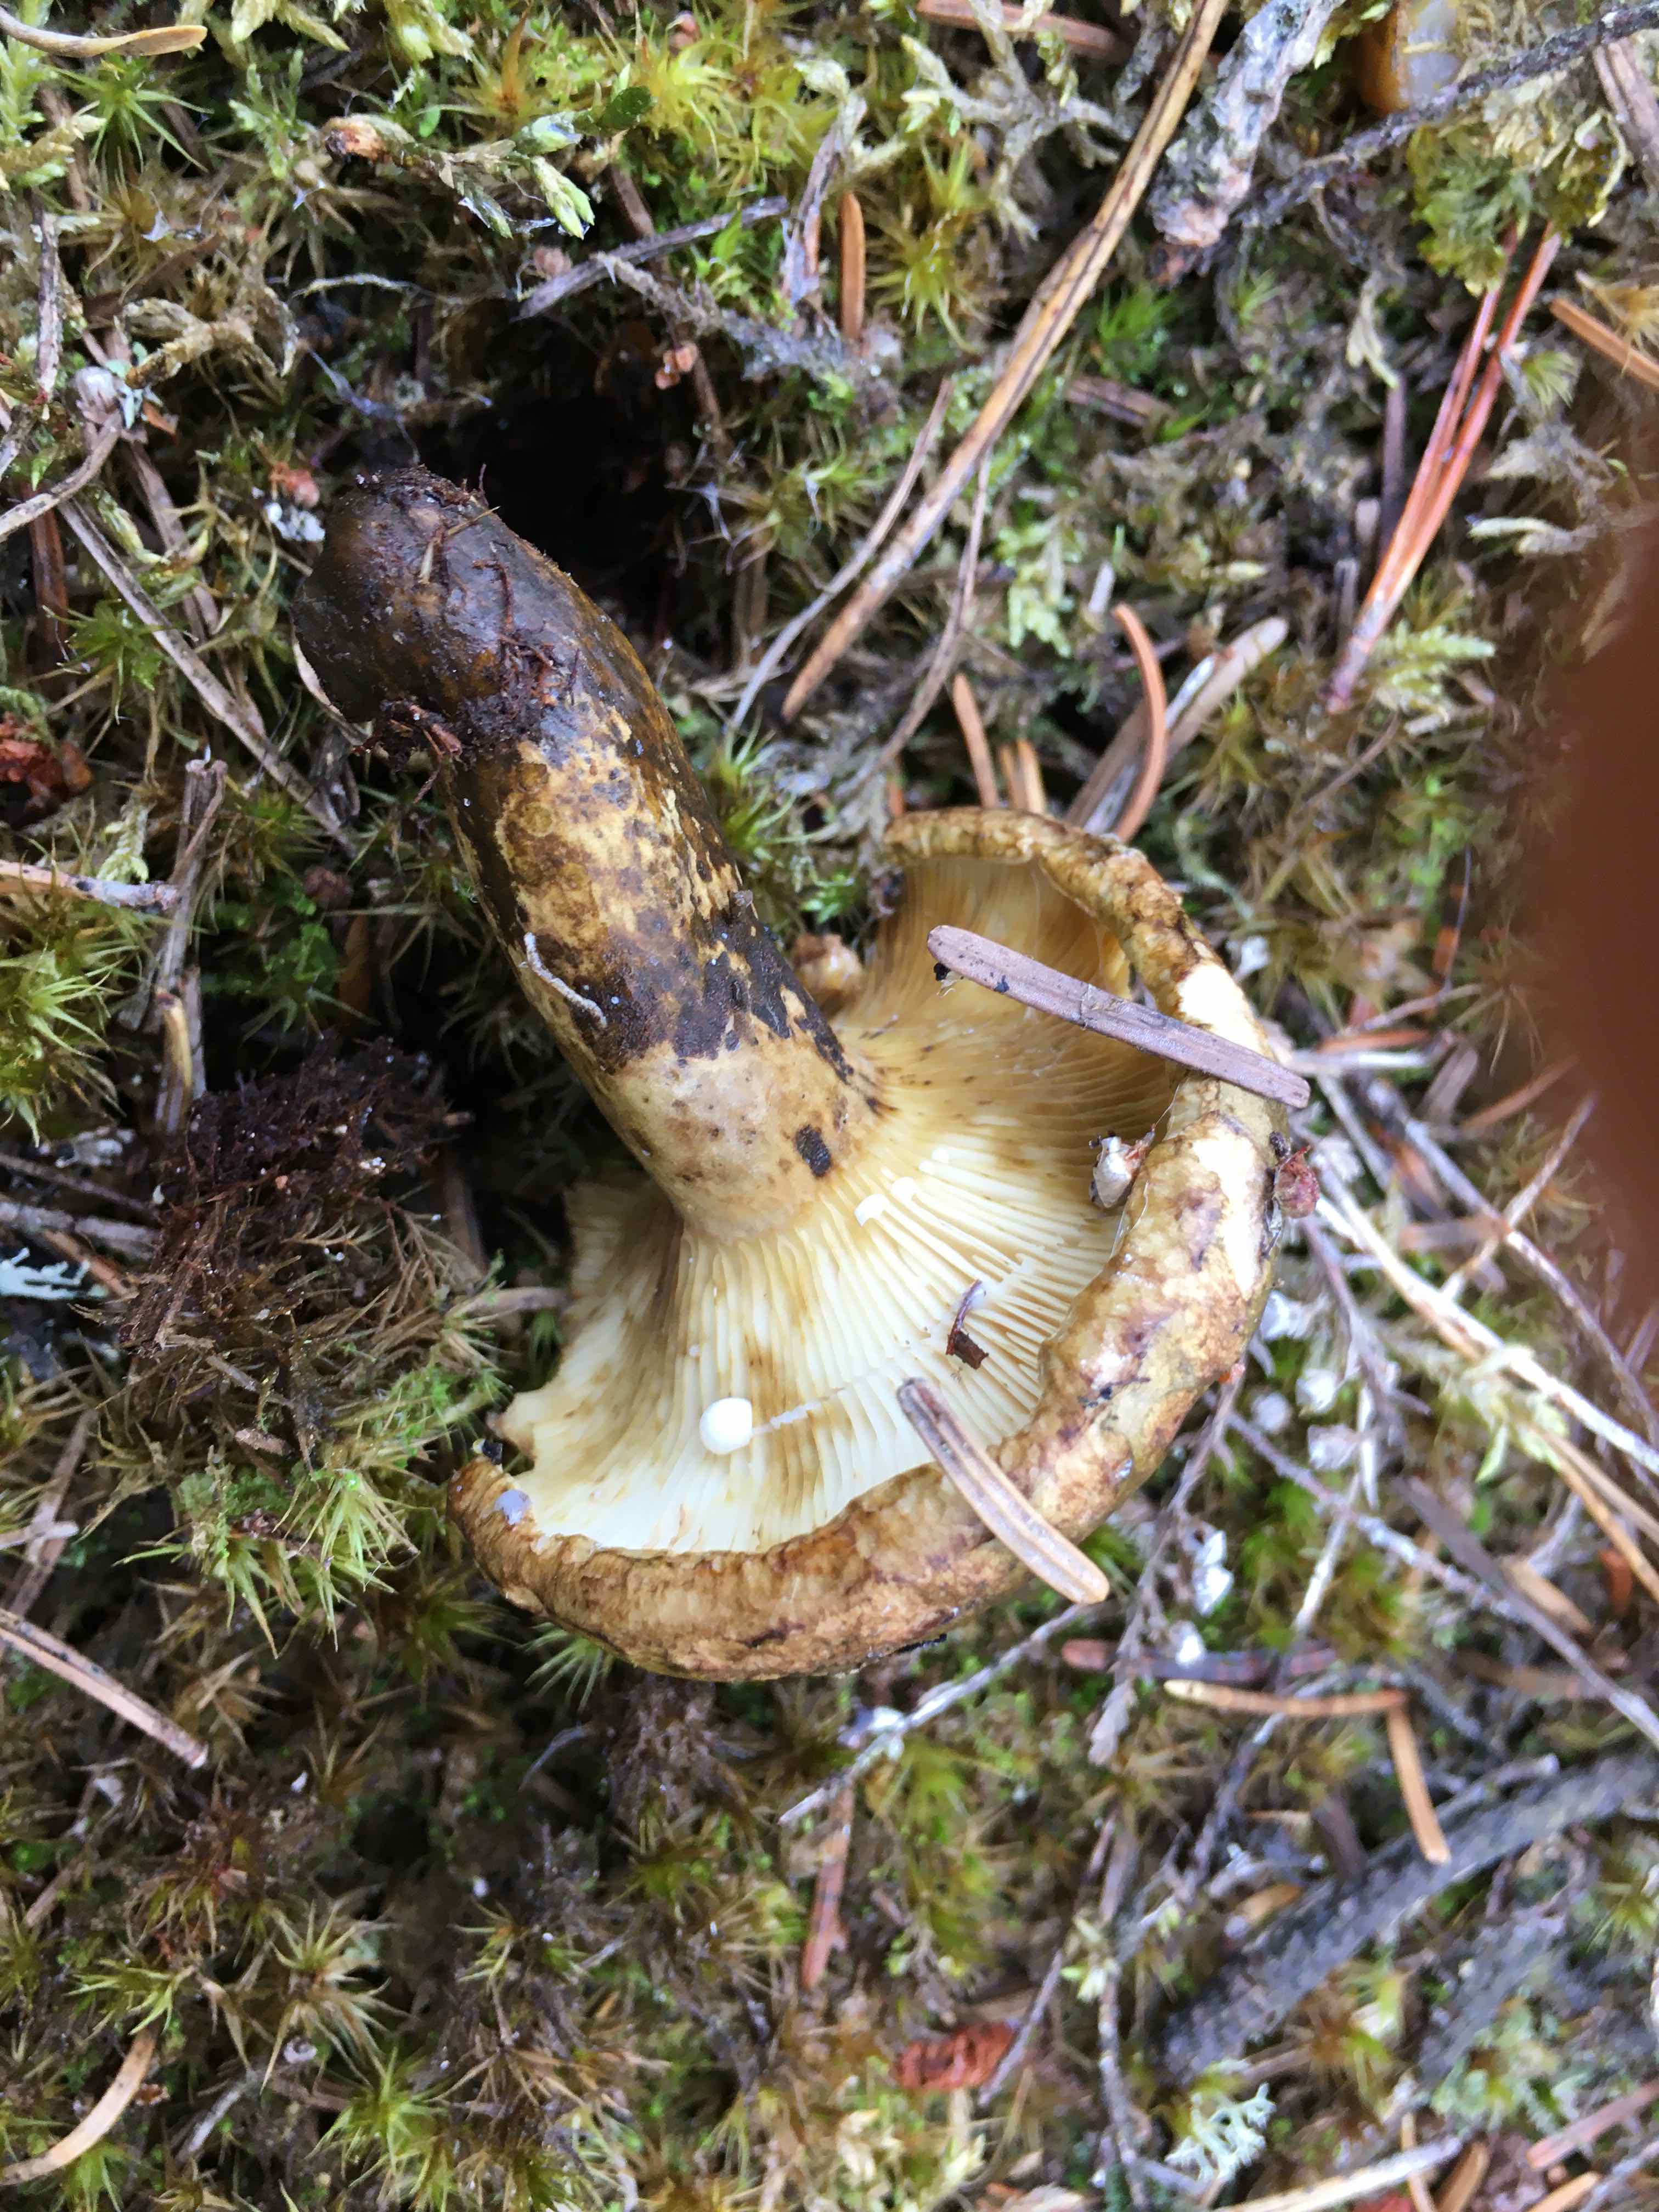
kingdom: Fungi
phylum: Basidiomycota
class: Agaricomycetes
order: Russulales
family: Russulaceae
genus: Lactarius
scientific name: Lactarius necator
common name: manddraber-mælkehat
